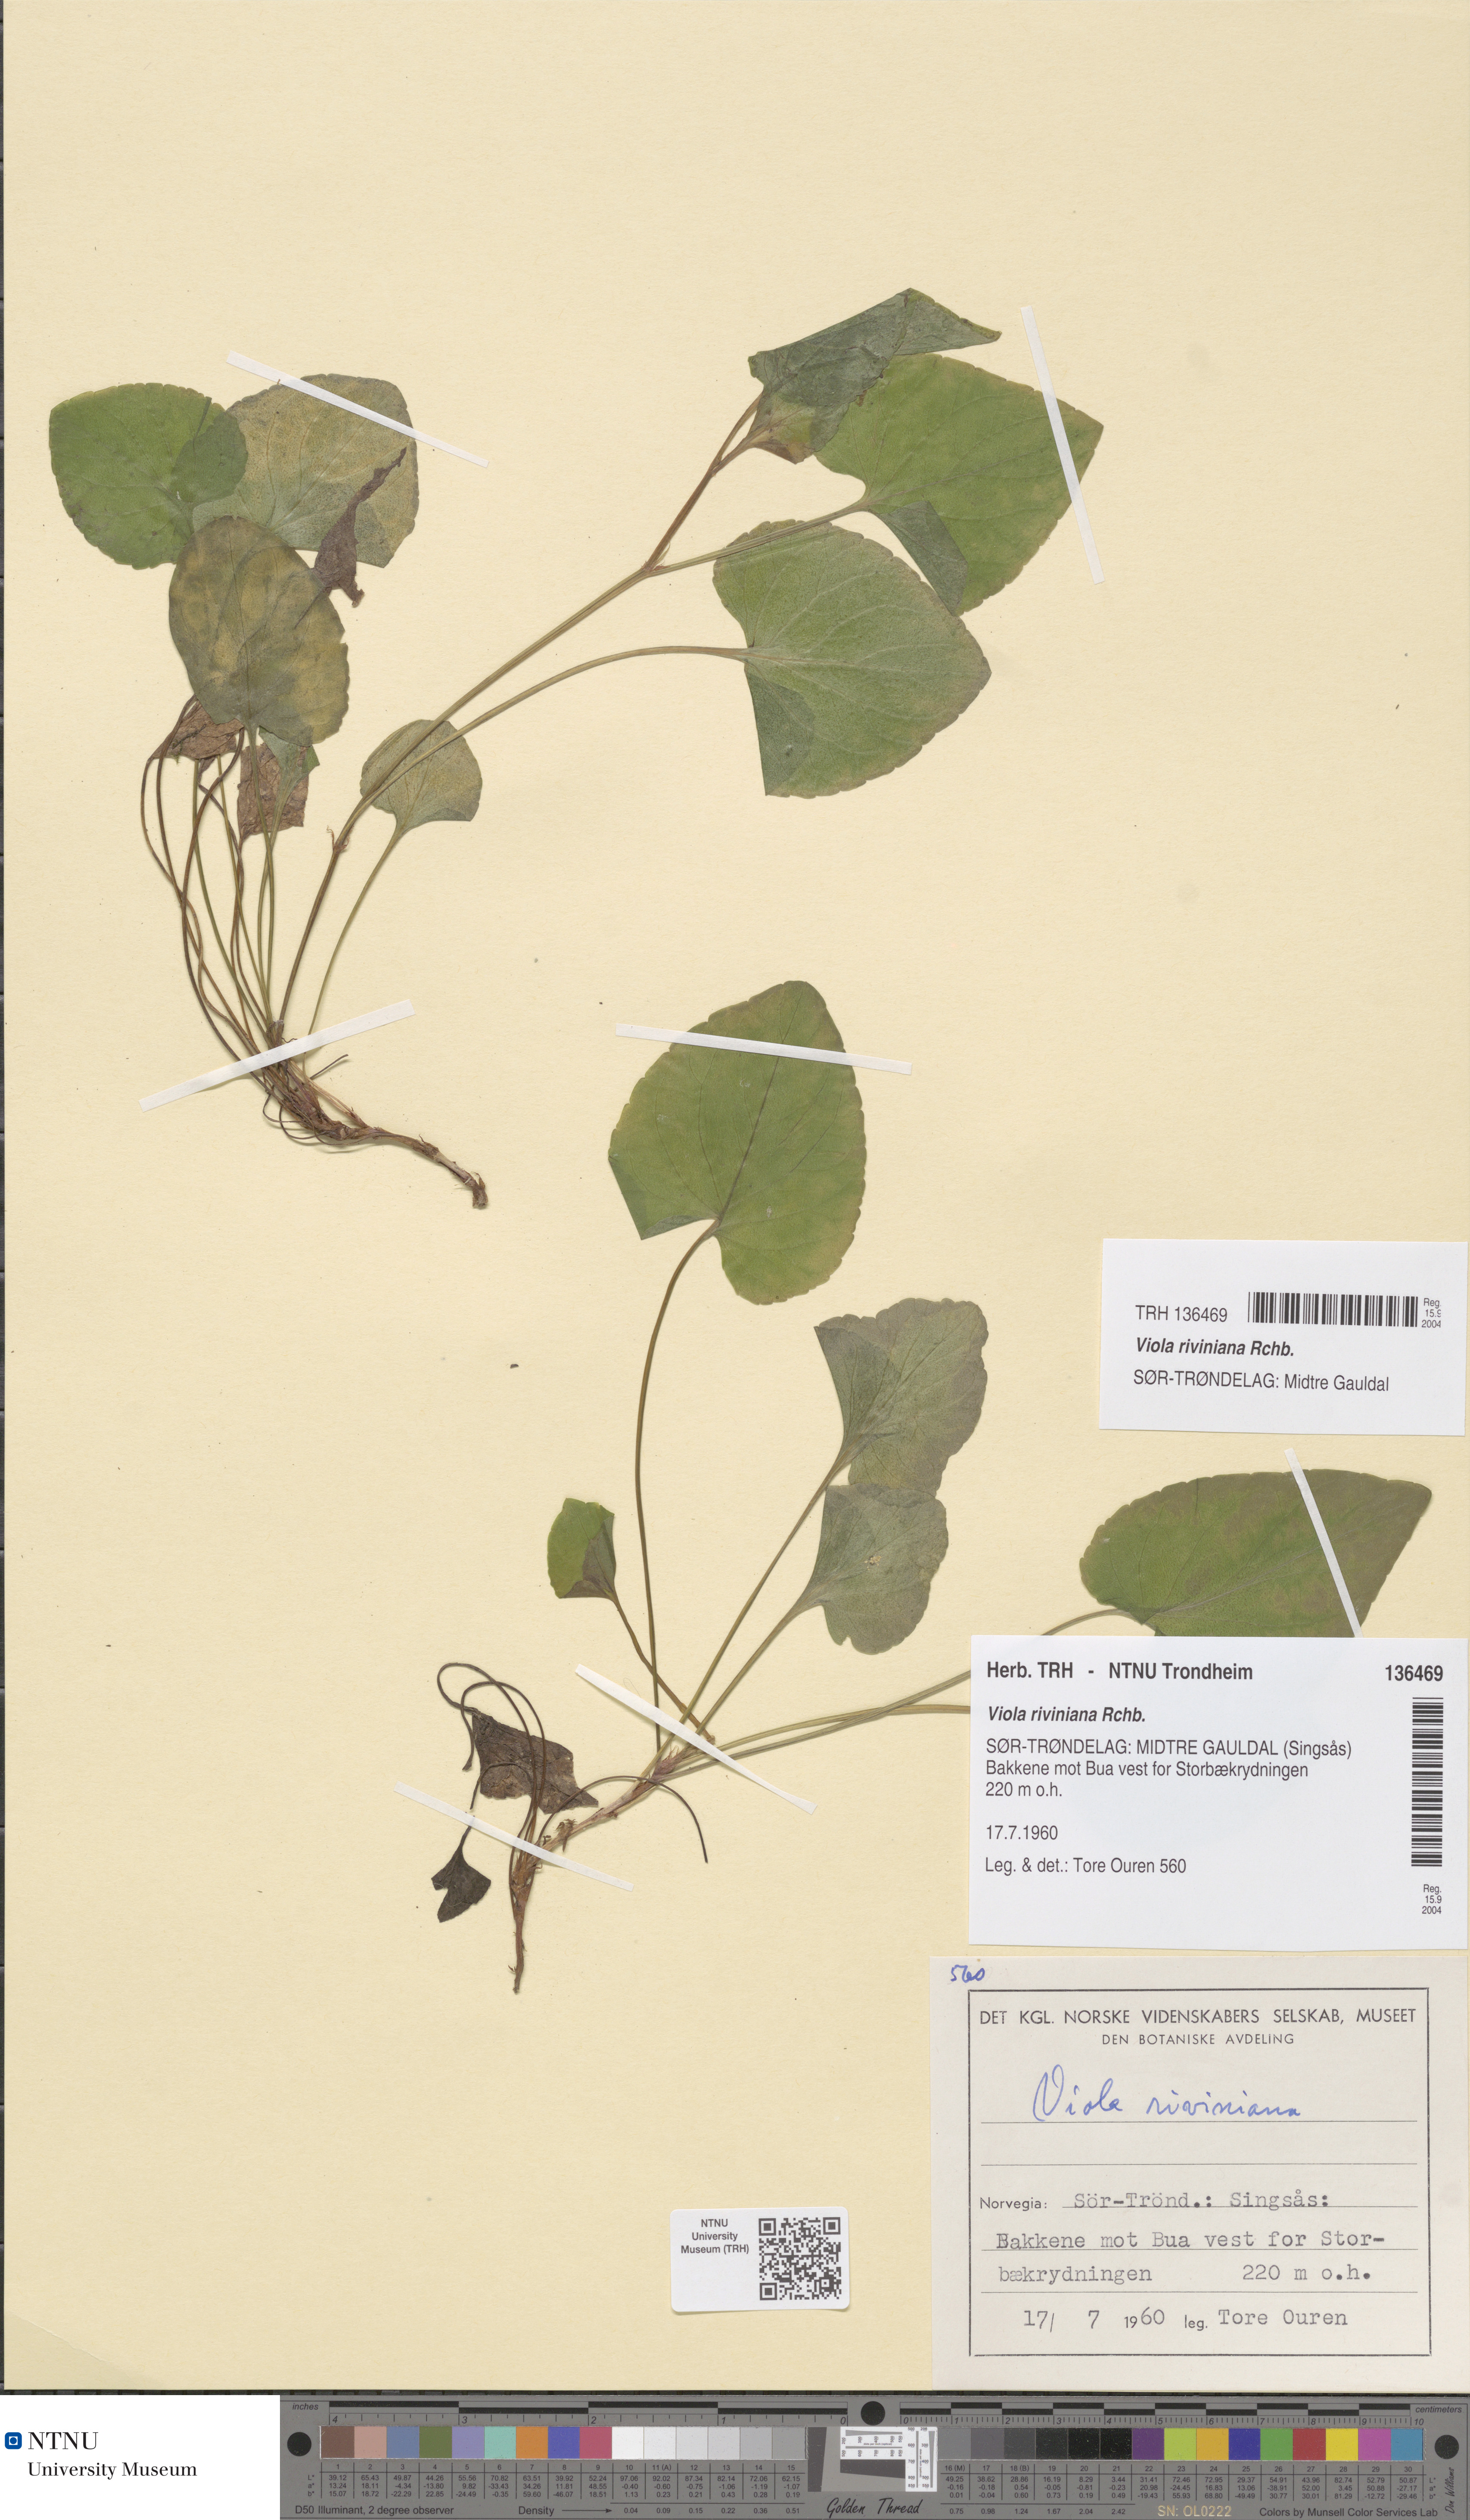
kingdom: Plantae
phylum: Tracheophyta
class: Magnoliopsida
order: Malpighiales
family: Violaceae
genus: Viola
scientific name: Viola riviniana
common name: Common dog-violet
